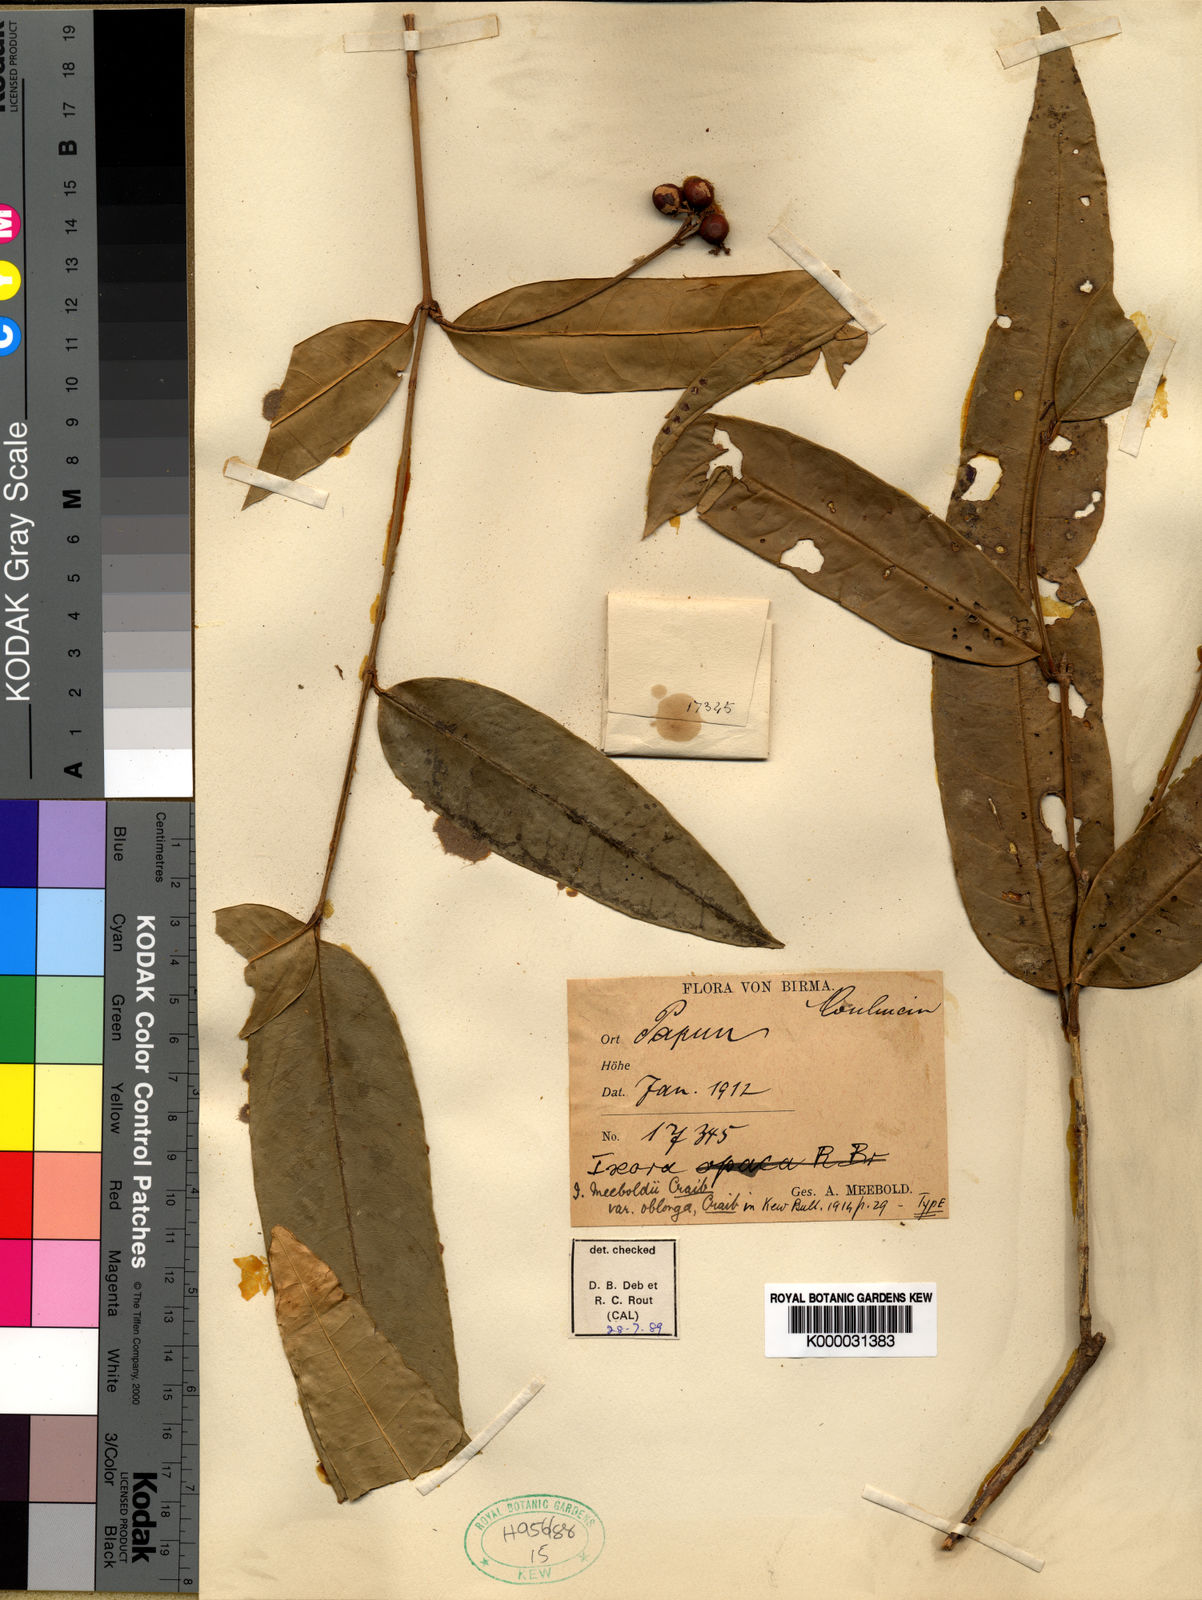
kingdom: Plantae
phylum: Tracheophyta
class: Magnoliopsida
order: Gentianales
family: Rubiaceae
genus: Ixora
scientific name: Ixora meeboldii
